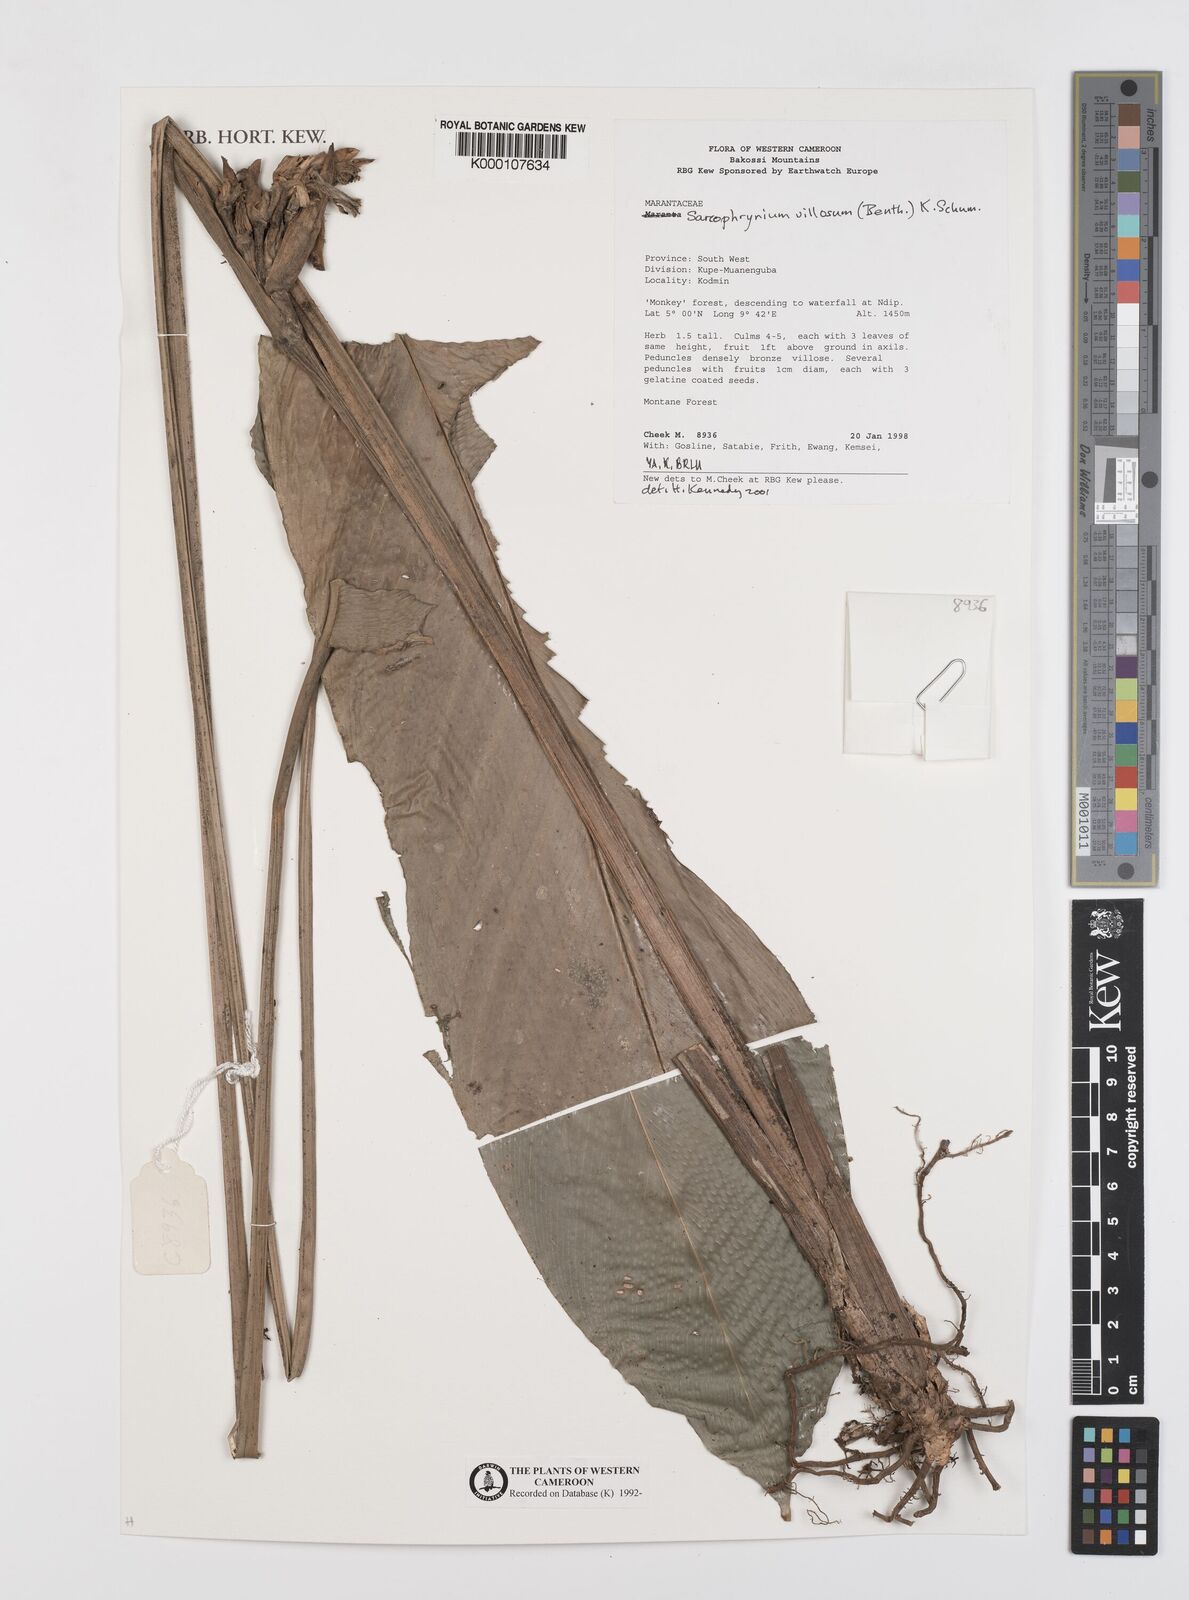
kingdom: Plantae
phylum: Tracheophyta
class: Liliopsida
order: Zingiberales
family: Marantaceae
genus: Sarcophrynium
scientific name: Sarcophrynium villosum
